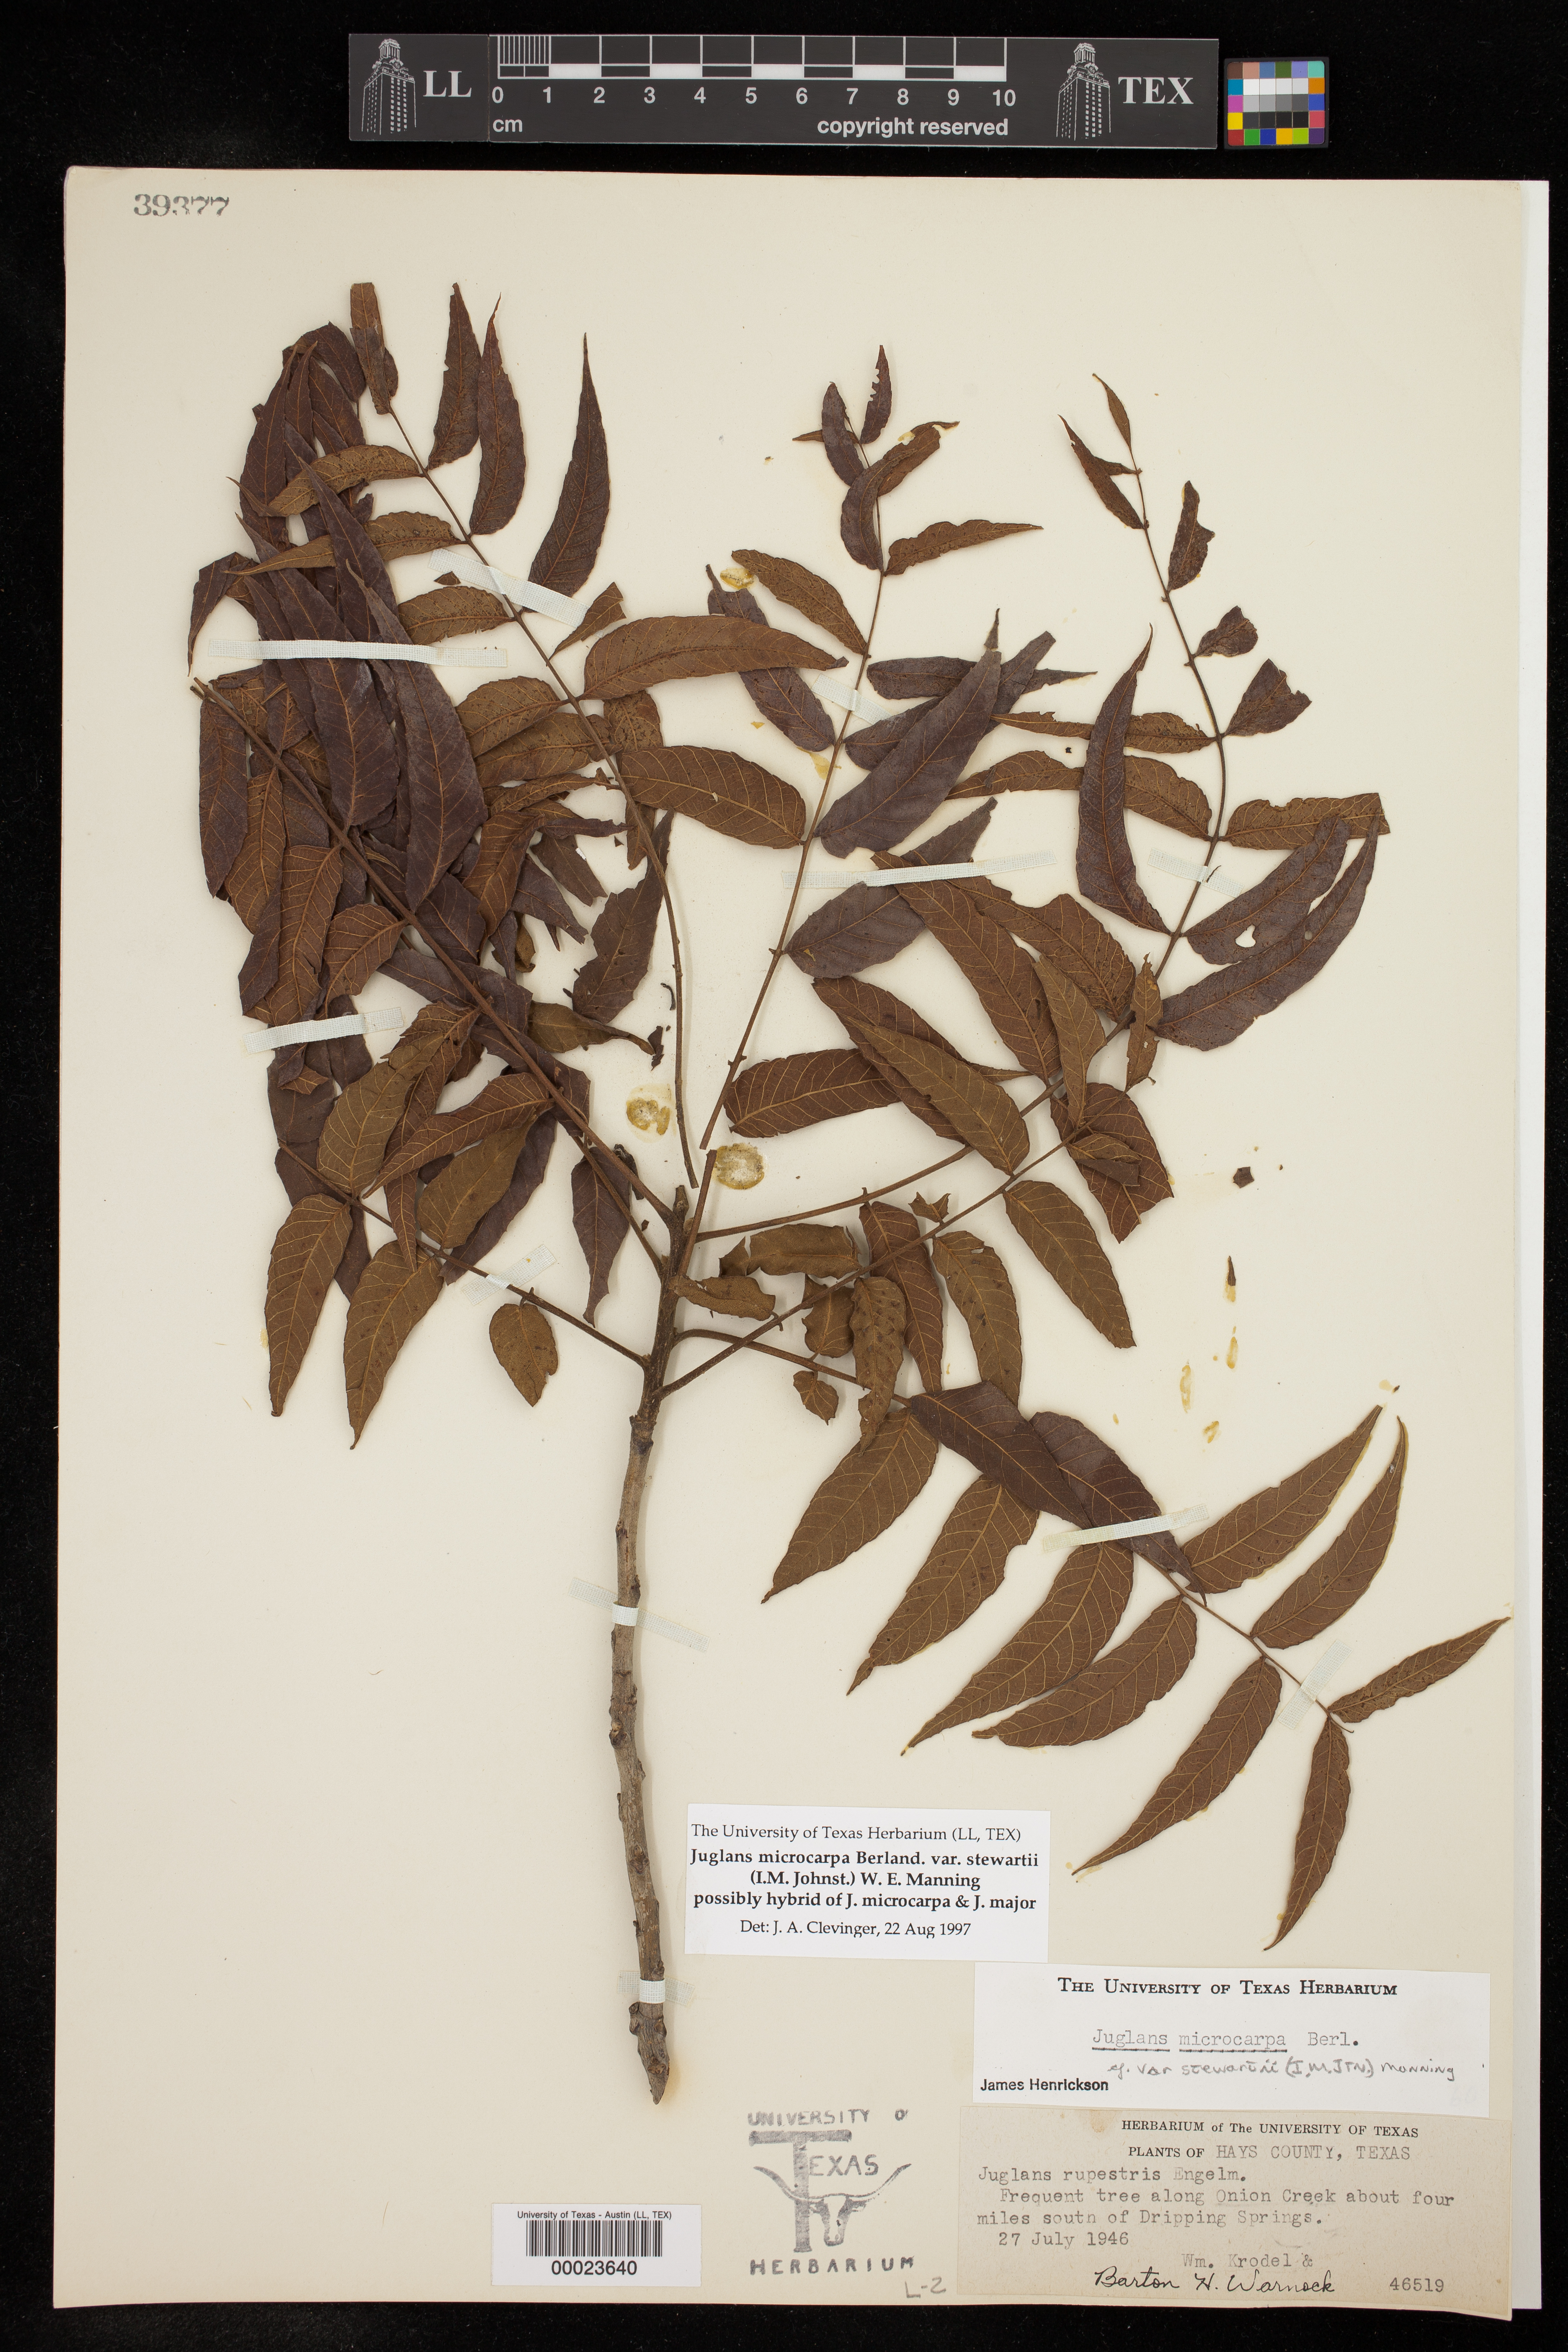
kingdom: Plantae
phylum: Tracheophyta
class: Magnoliopsida
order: Fagales
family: Juglandaceae
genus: Juglans
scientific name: Juglans microcarpa
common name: Texas walnut
